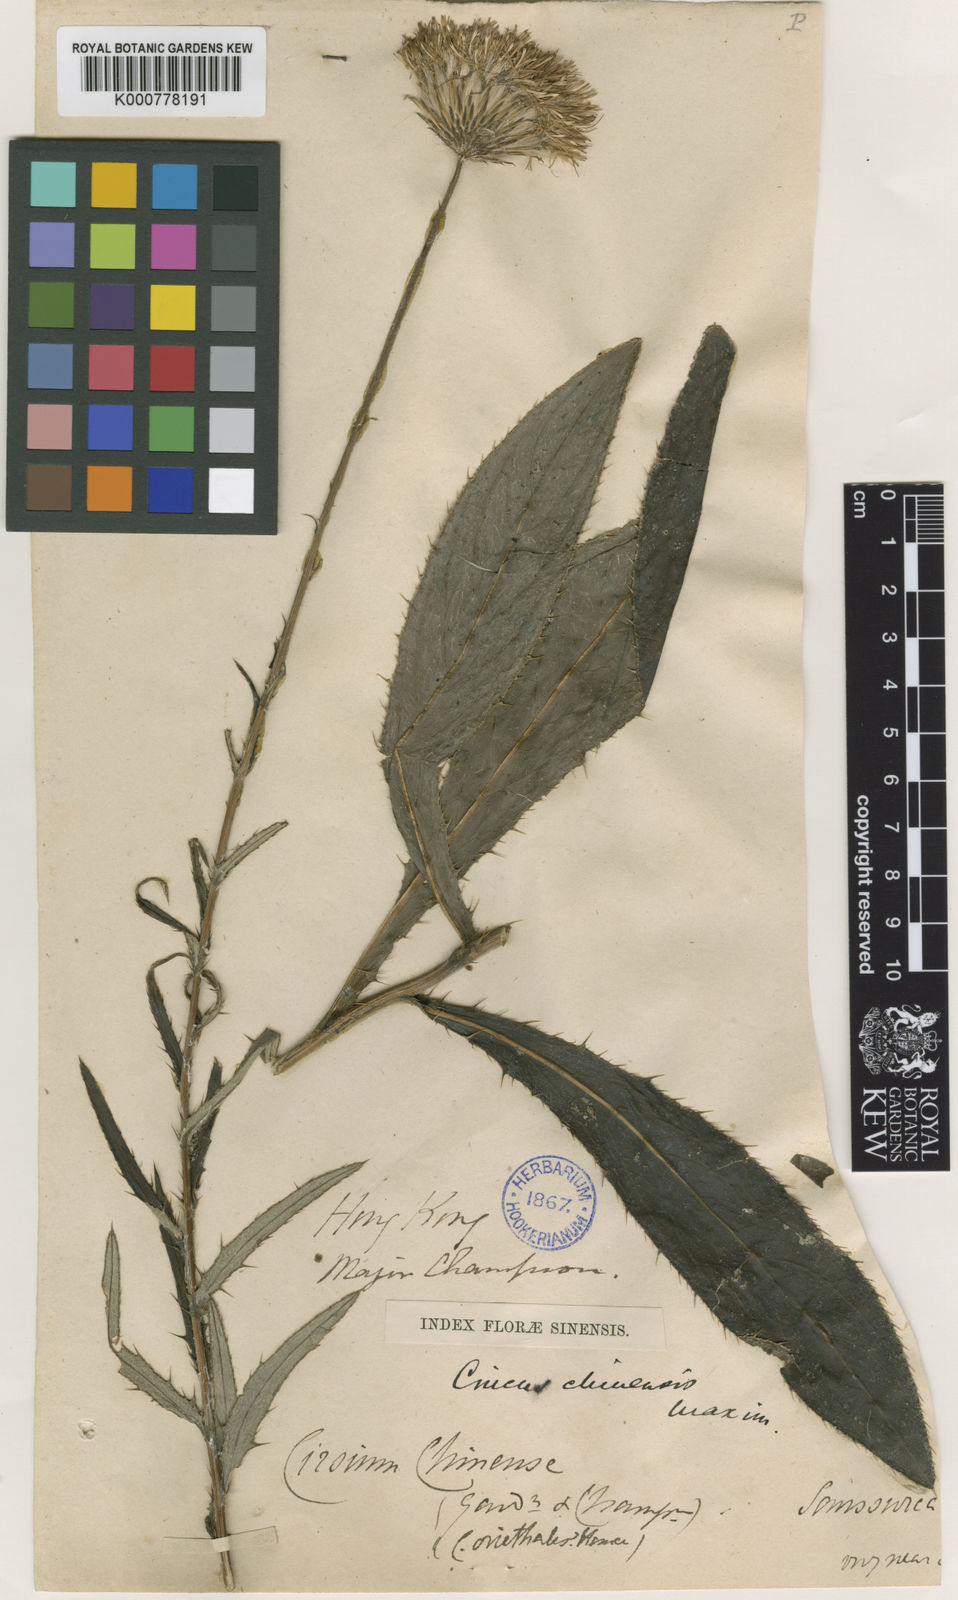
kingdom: Plantae
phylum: Tracheophyta
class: Magnoliopsida
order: Asterales
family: Asteraceae
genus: Cirsium
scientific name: Cirsium chinense
